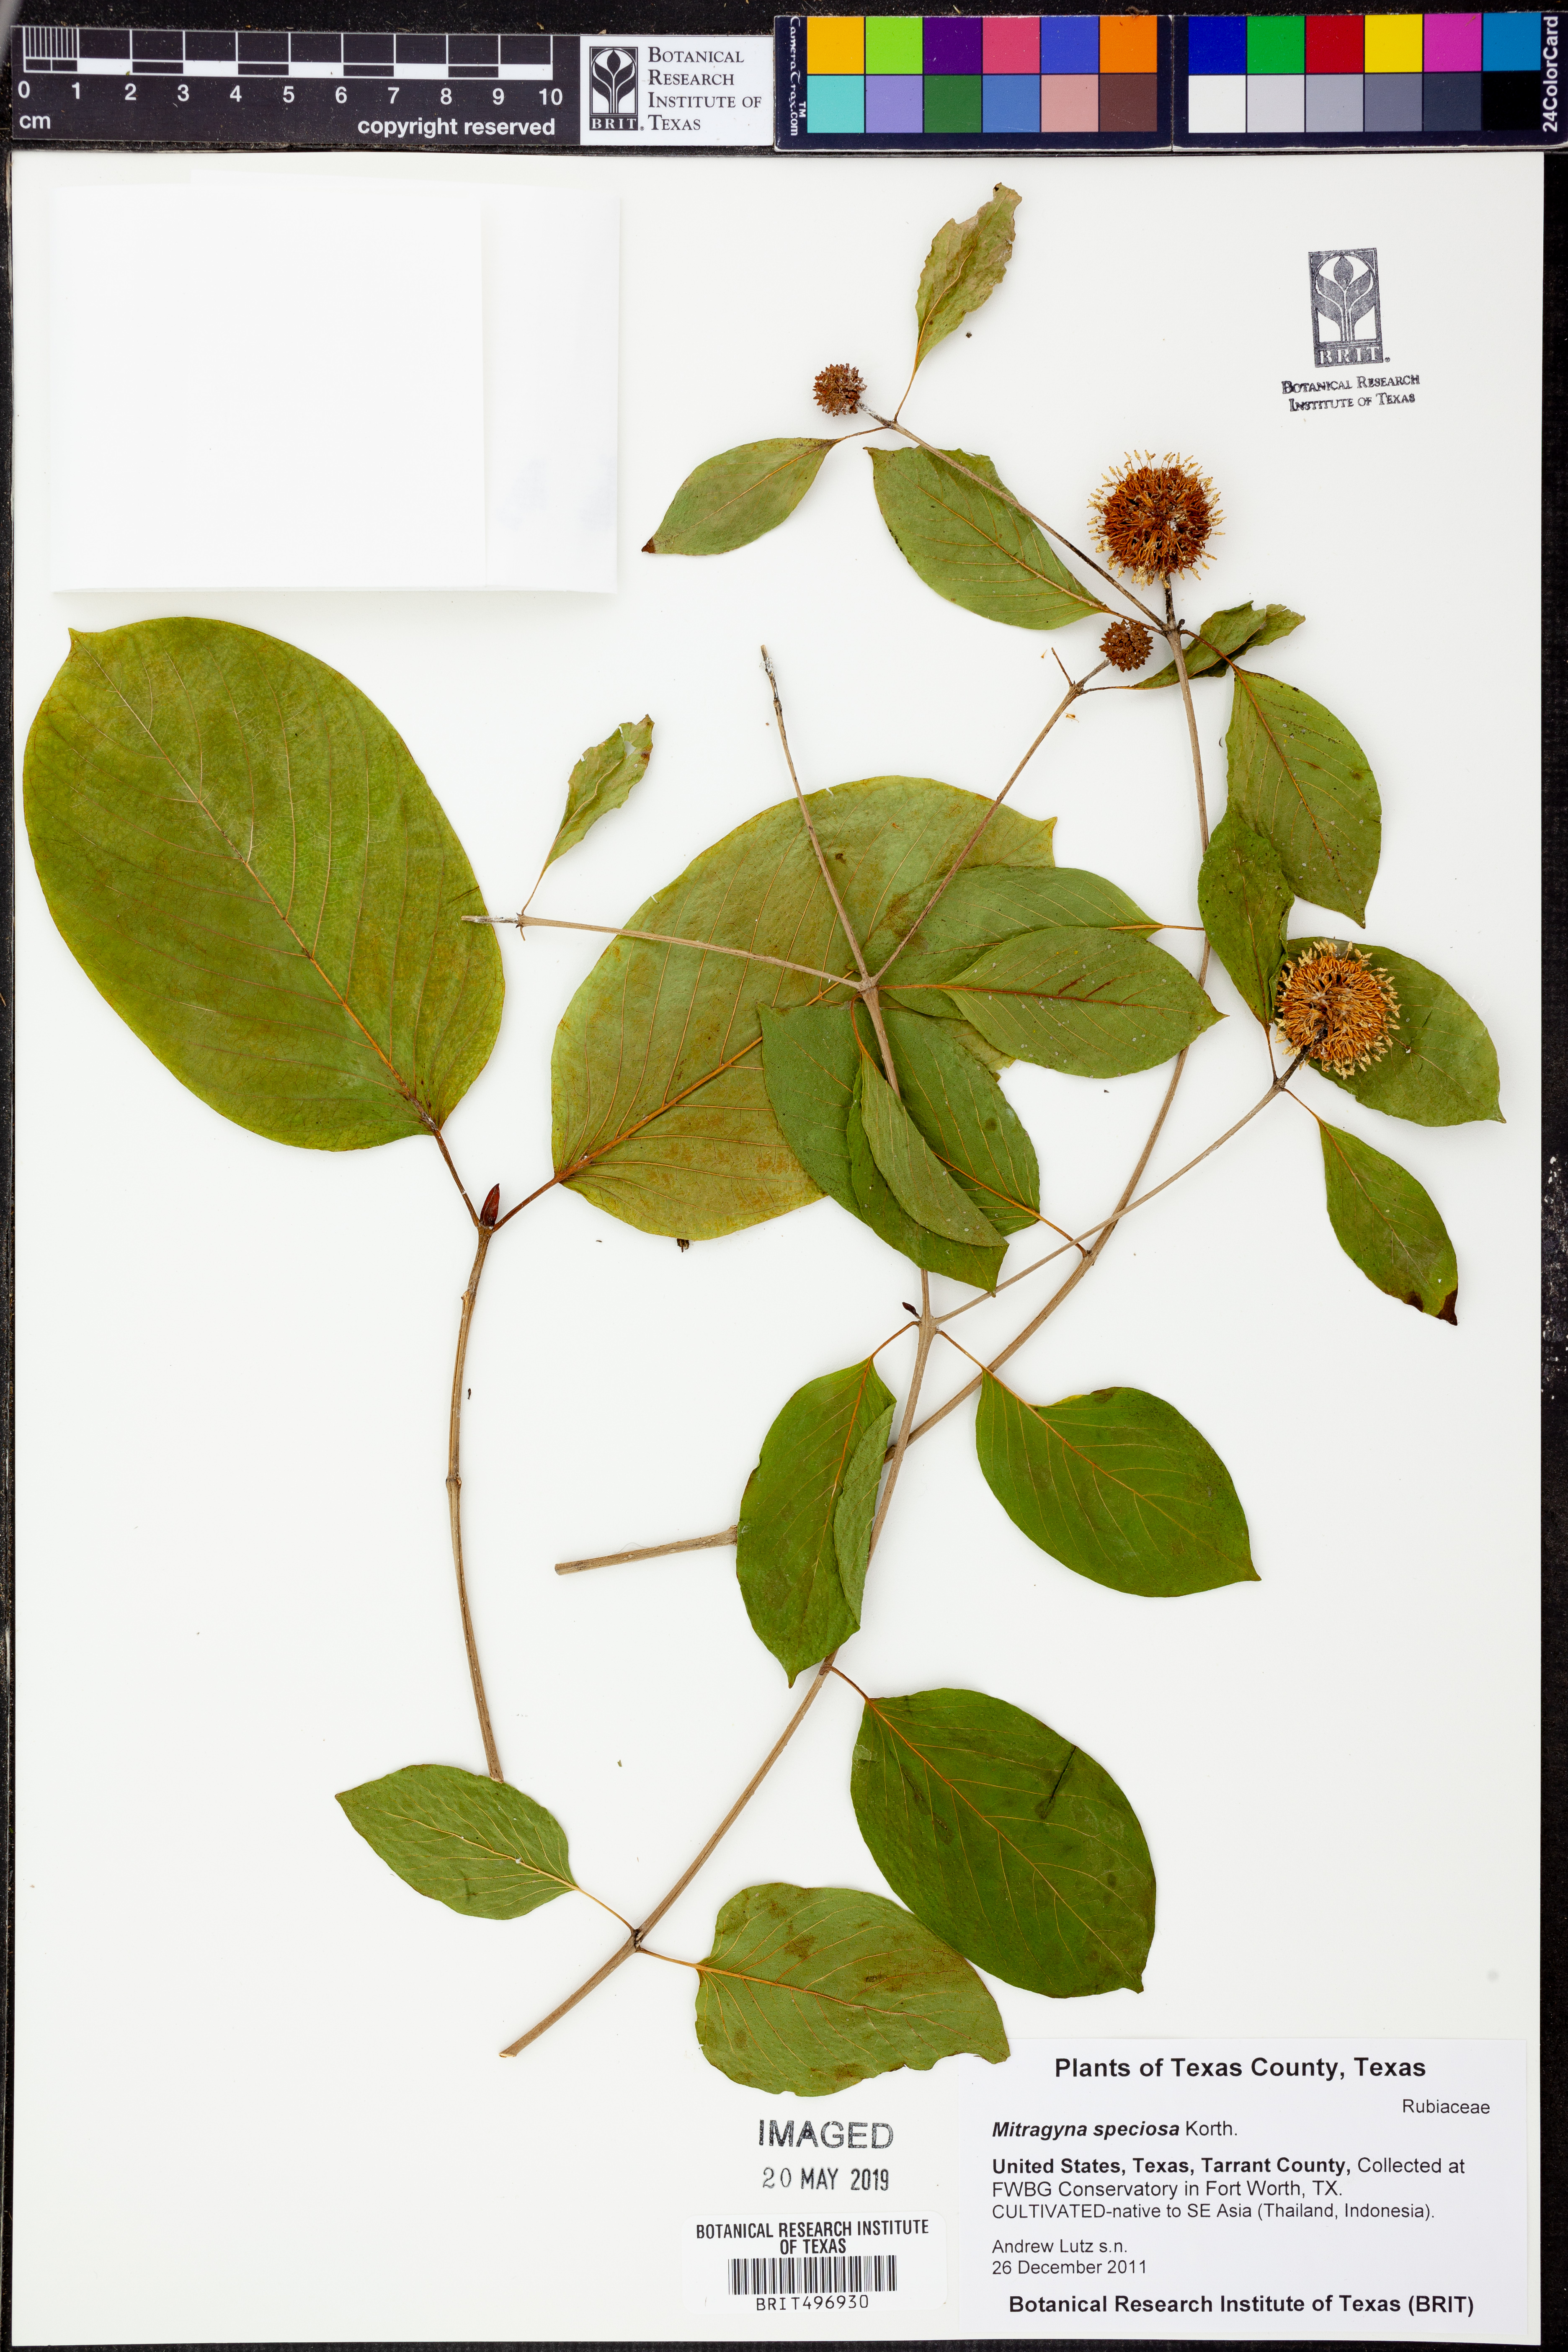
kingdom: Plantae
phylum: Tracheophyta
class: Magnoliopsida
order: Gentianales
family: Rubiaceae
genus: Mitragyna
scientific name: Mitragyna speciosa
